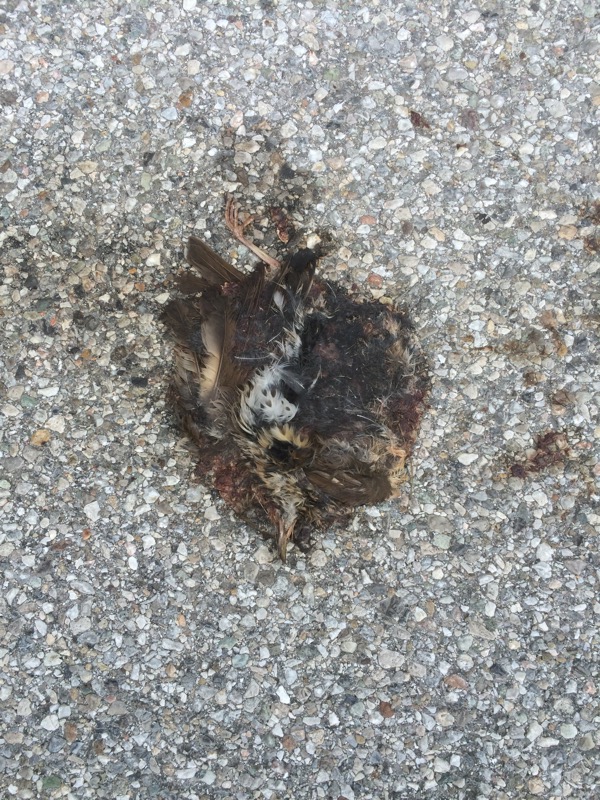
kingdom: Animalia
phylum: Chordata
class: Aves
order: Passeriformes
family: Turdidae
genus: Turdus
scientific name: Turdus philomelos
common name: Song thrush
